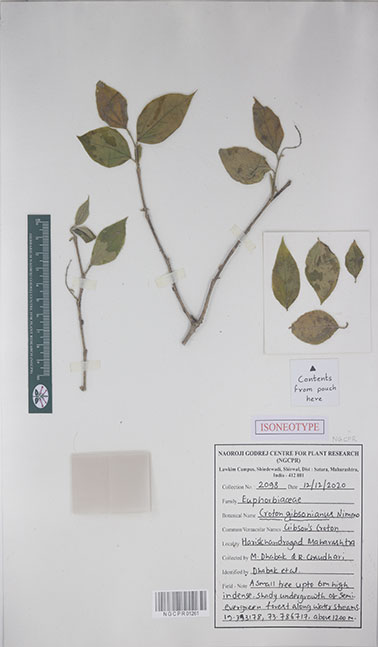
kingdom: Plantae
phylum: Tracheophyta
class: Magnoliopsida
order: Malpighiales
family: Euphorbiaceae
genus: Croton
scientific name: Croton gibsonianus
